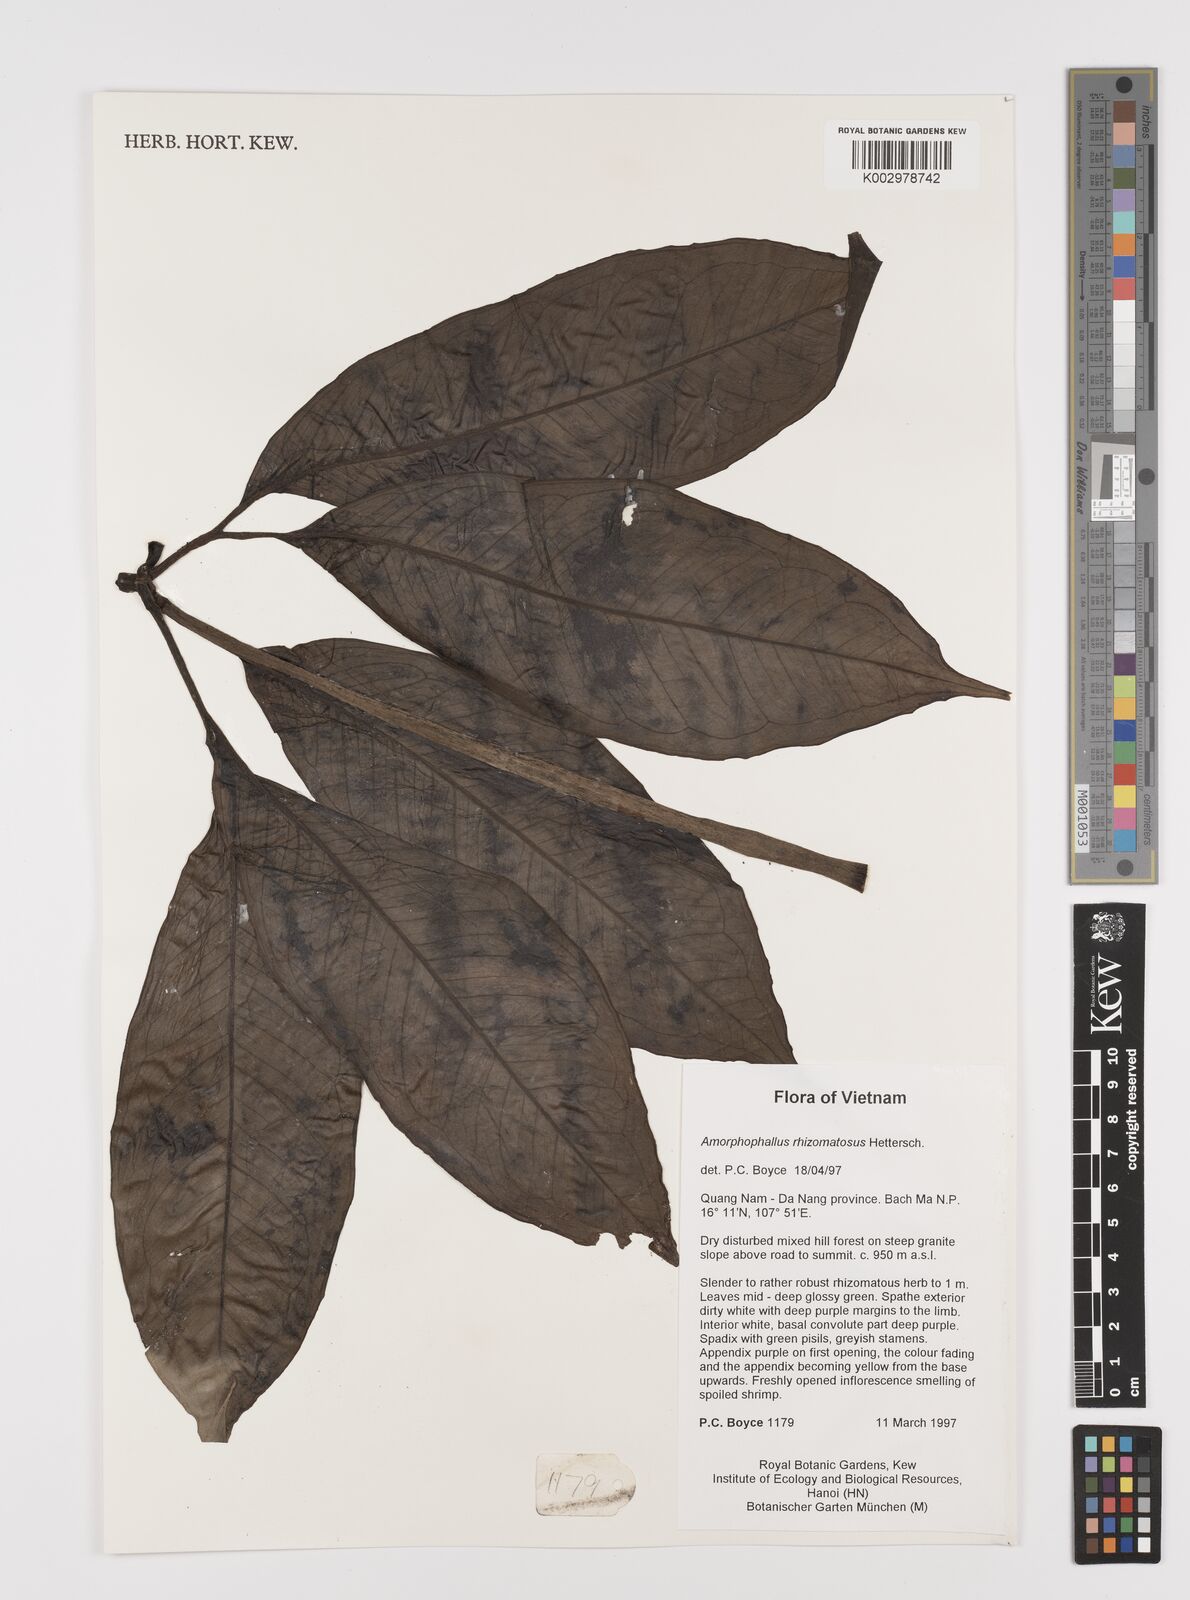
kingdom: Plantae
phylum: Tracheophyta
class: Liliopsida
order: Alismatales
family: Araceae
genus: Amorphophallus
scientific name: Amorphophallus rhizomatosus
